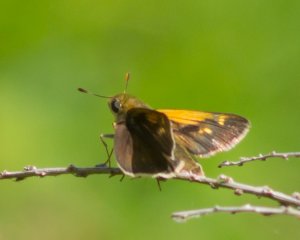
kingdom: Animalia
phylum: Arthropoda
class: Insecta
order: Lepidoptera
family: Hesperiidae
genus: Polites
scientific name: Polites themistocles
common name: Tawny-edged Skipper
